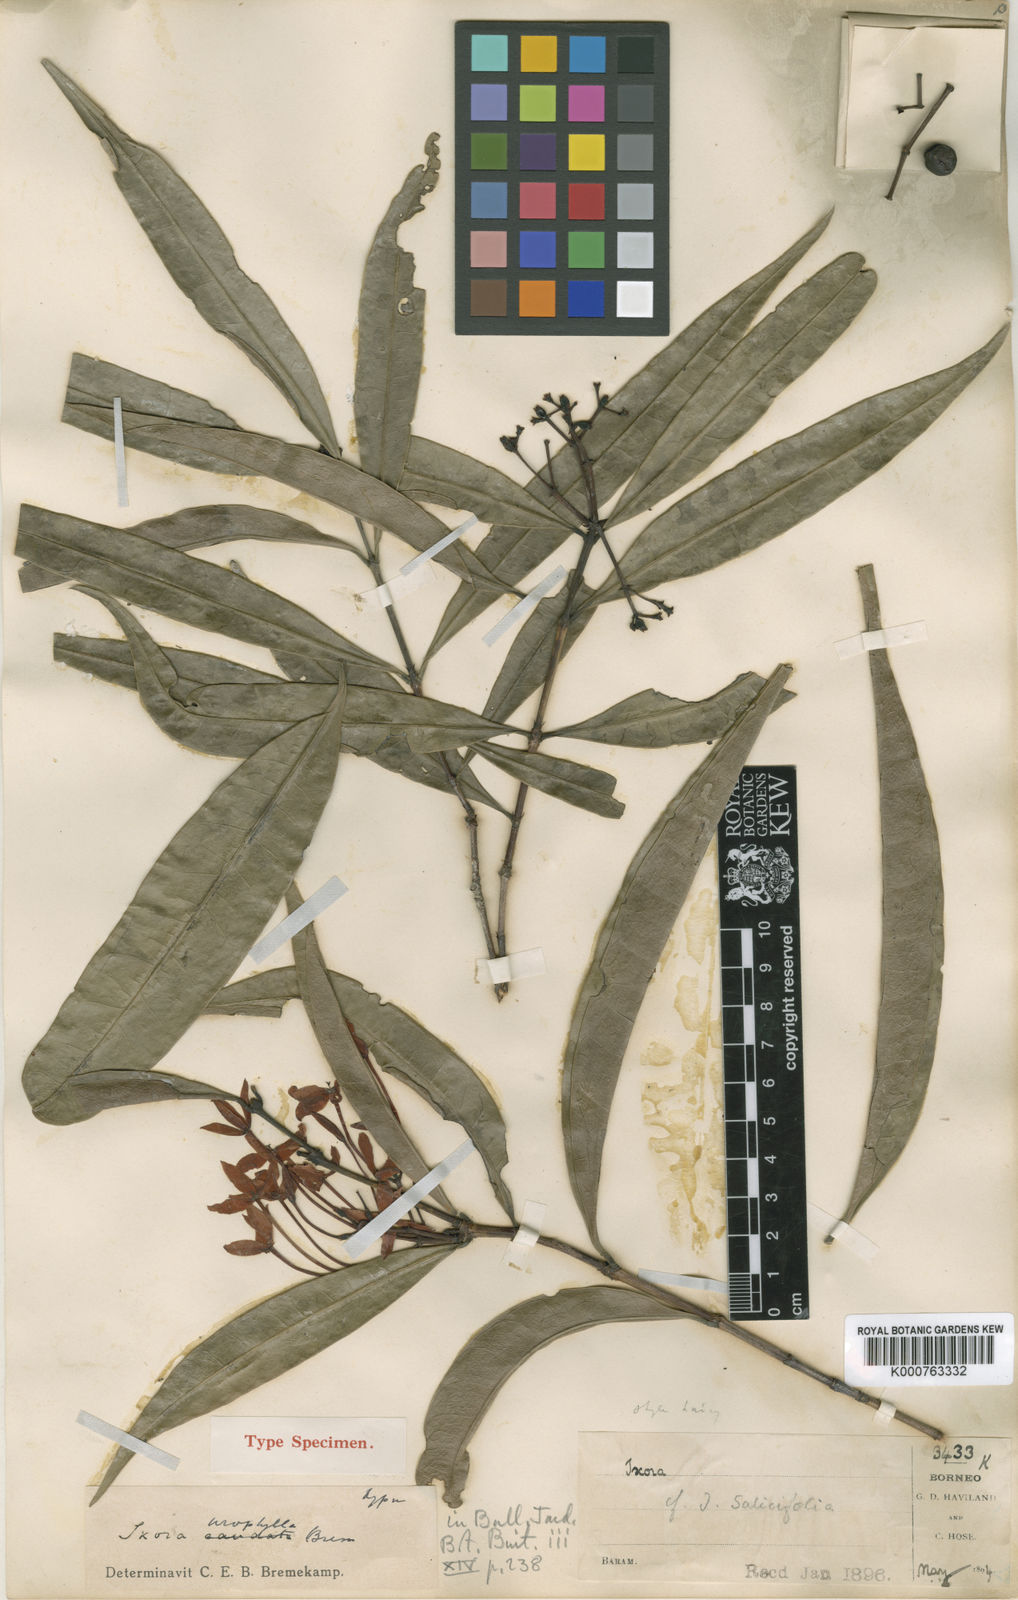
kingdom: Plantae
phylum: Tracheophyta
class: Magnoliopsida
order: Gentianales
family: Rubiaceae
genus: Ixora
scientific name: Ixora urophylla
